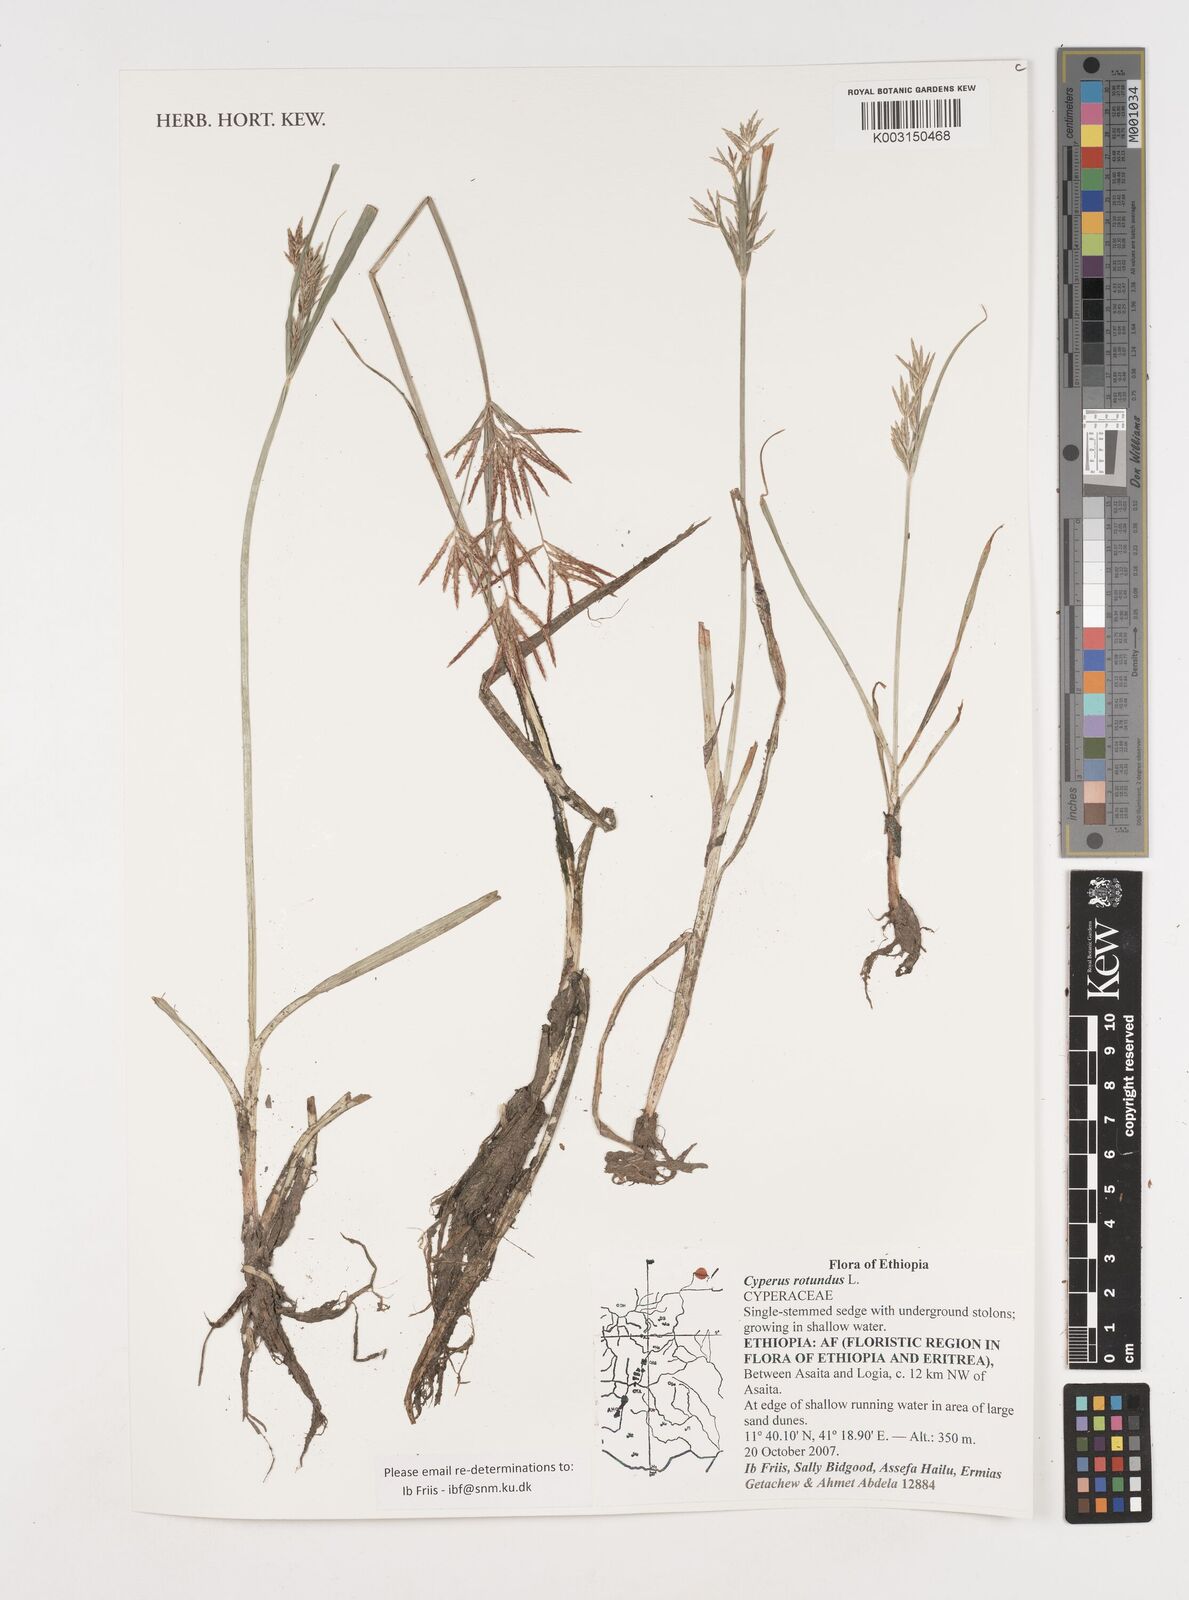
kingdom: Plantae
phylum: Tracheophyta
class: Liliopsida
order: Poales
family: Cyperaceae
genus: Cyperus
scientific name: Cyperus rotundus
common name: Nutgrass
